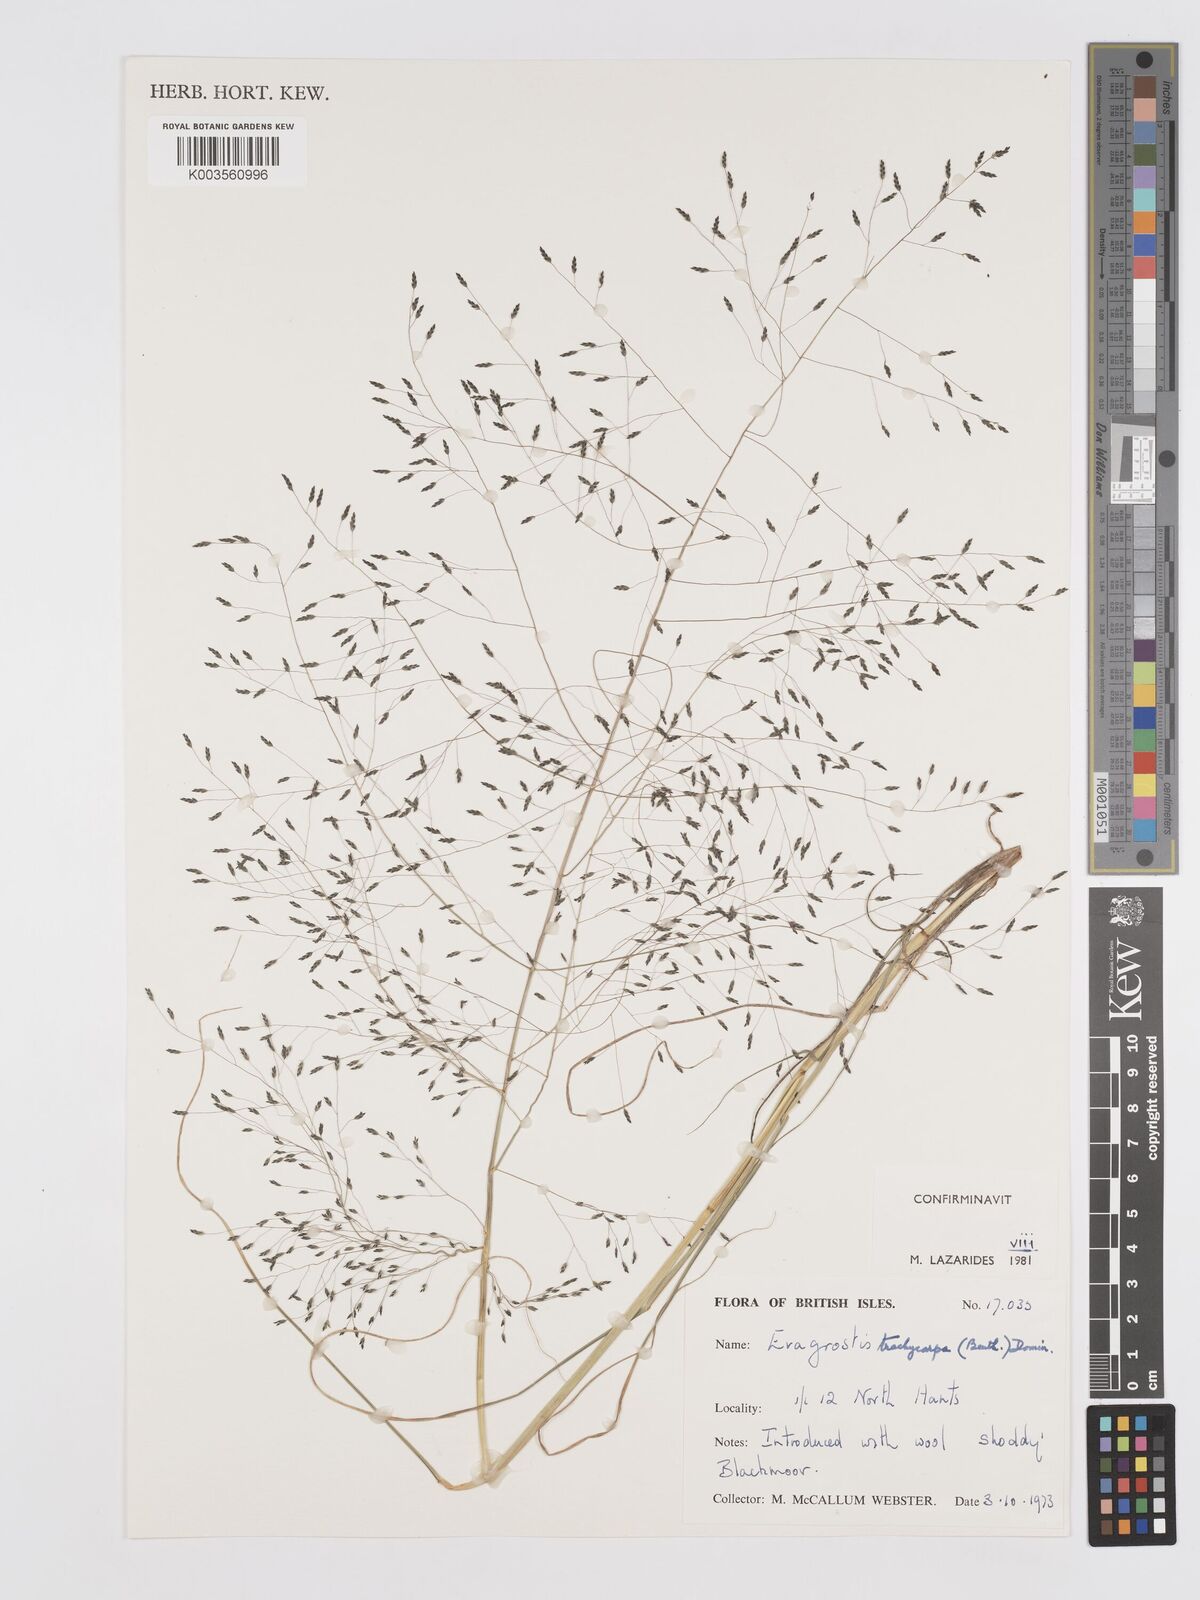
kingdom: Plantae
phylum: Tracheophyta
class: Liliopsida
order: Poales
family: Poaceae
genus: Eragrostis
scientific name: Eragrostis trachycarpa
